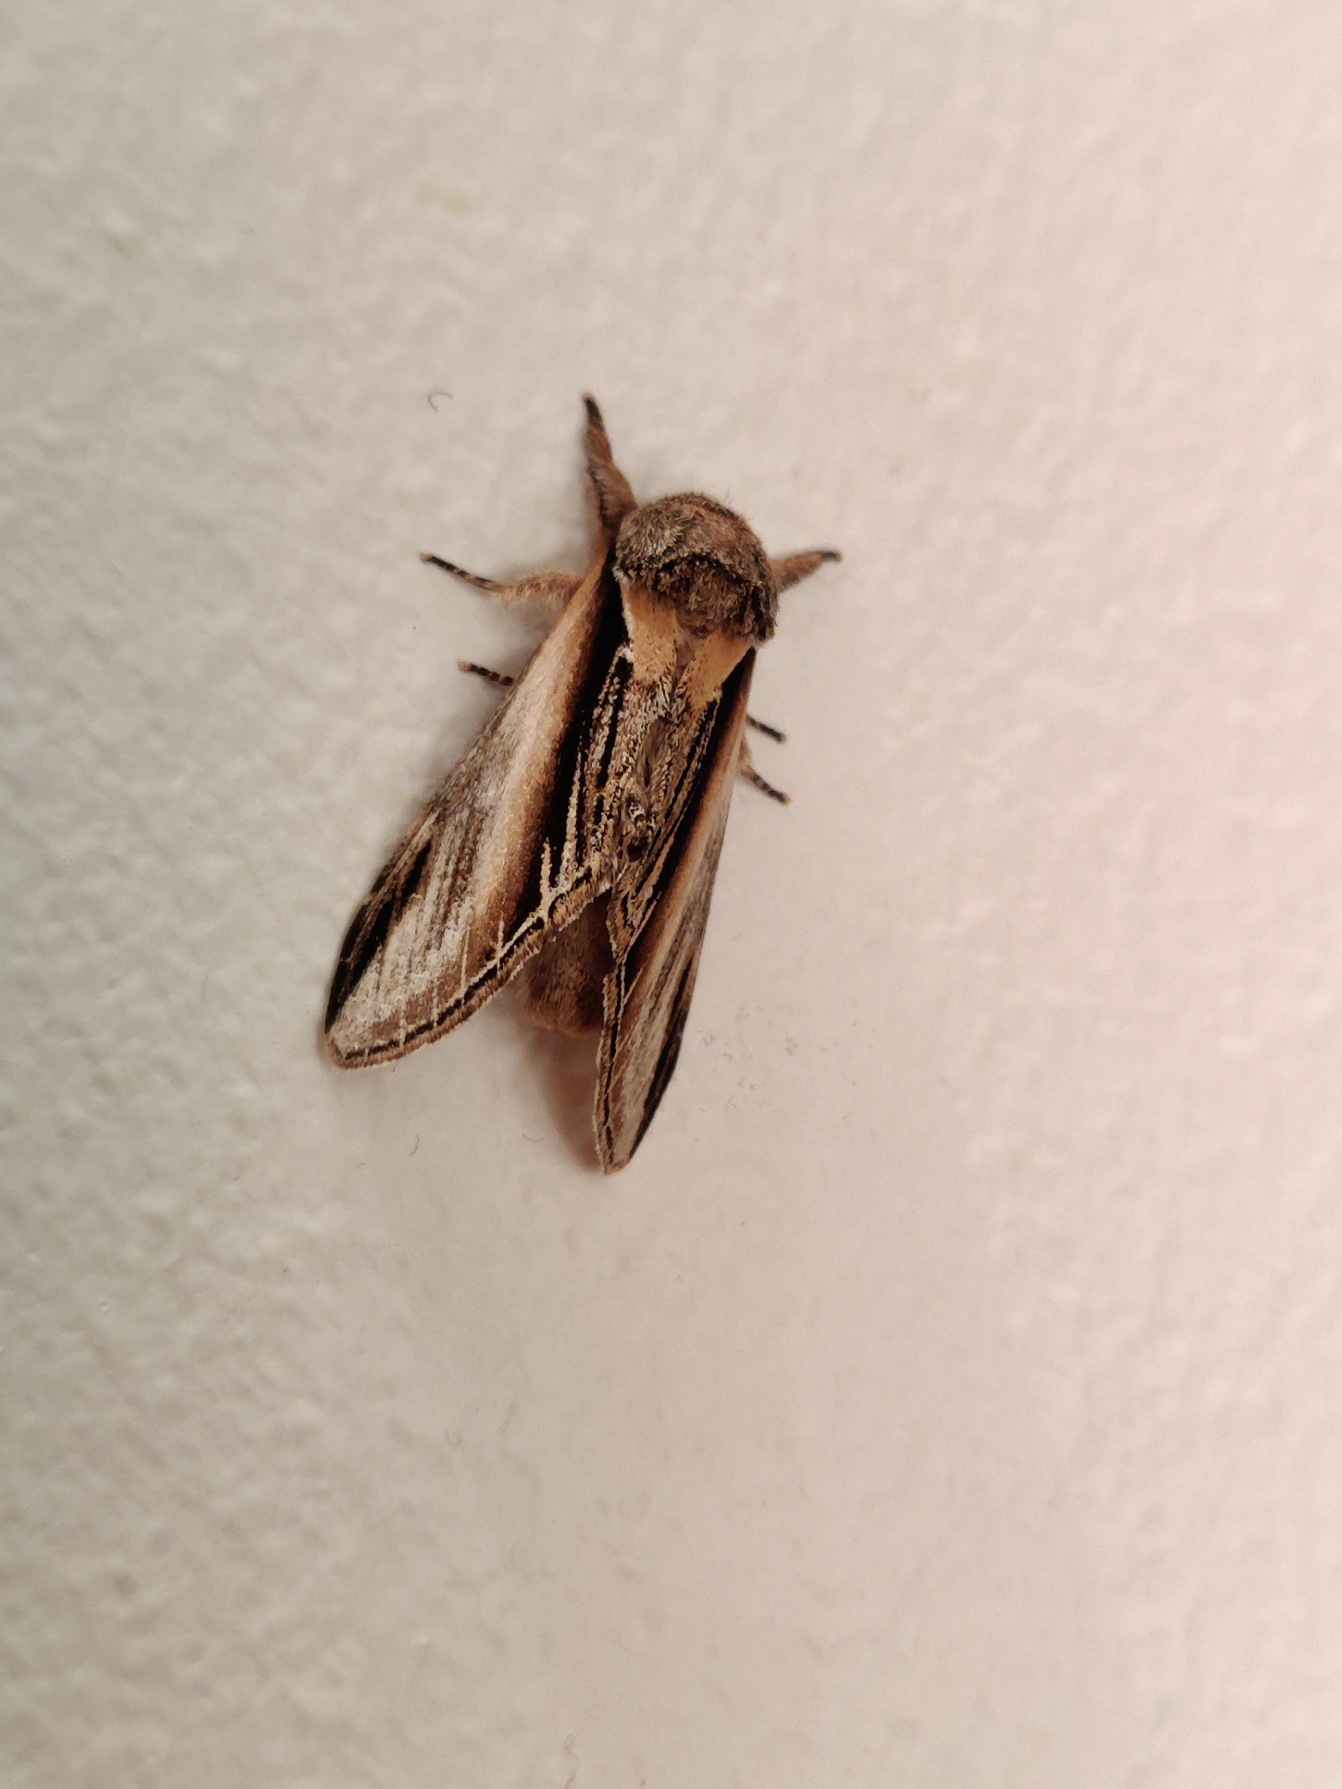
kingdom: Animalia
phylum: Arthropoda
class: Insecta
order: Lepidoptera
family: Notodontidae
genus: Pheosia
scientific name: Pheosia tremula
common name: Poppelporcelænsspinder
